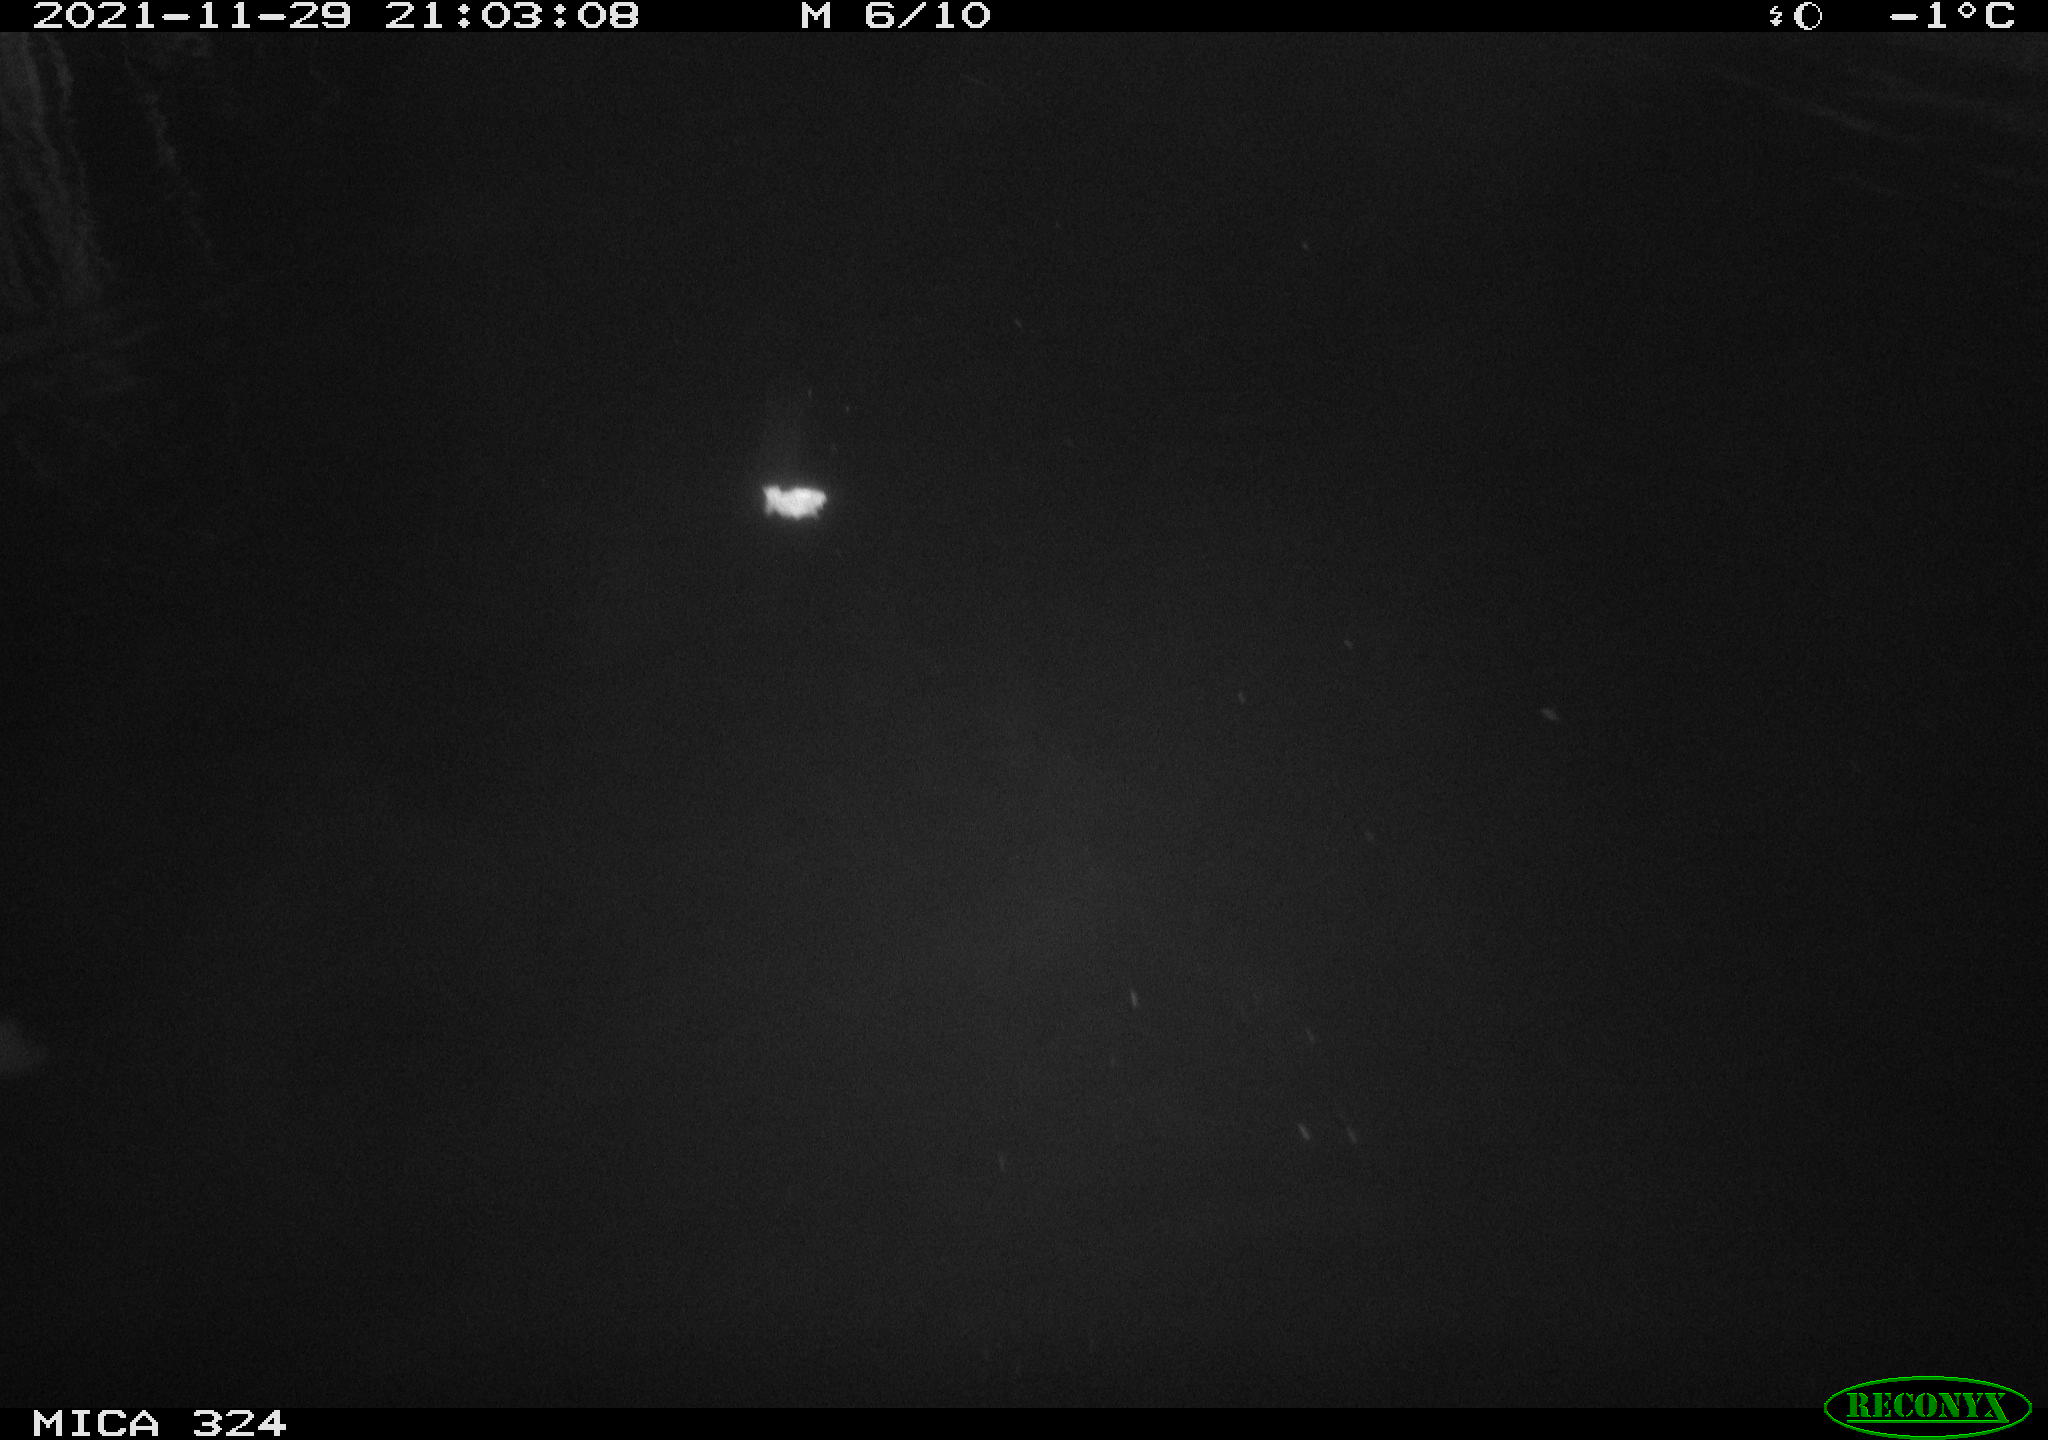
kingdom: Animalia
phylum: Chordata
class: Mammalia
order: Rodentia
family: Cricetidae
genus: Ondatra
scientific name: Ondatra zibethicus
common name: Muskrat
